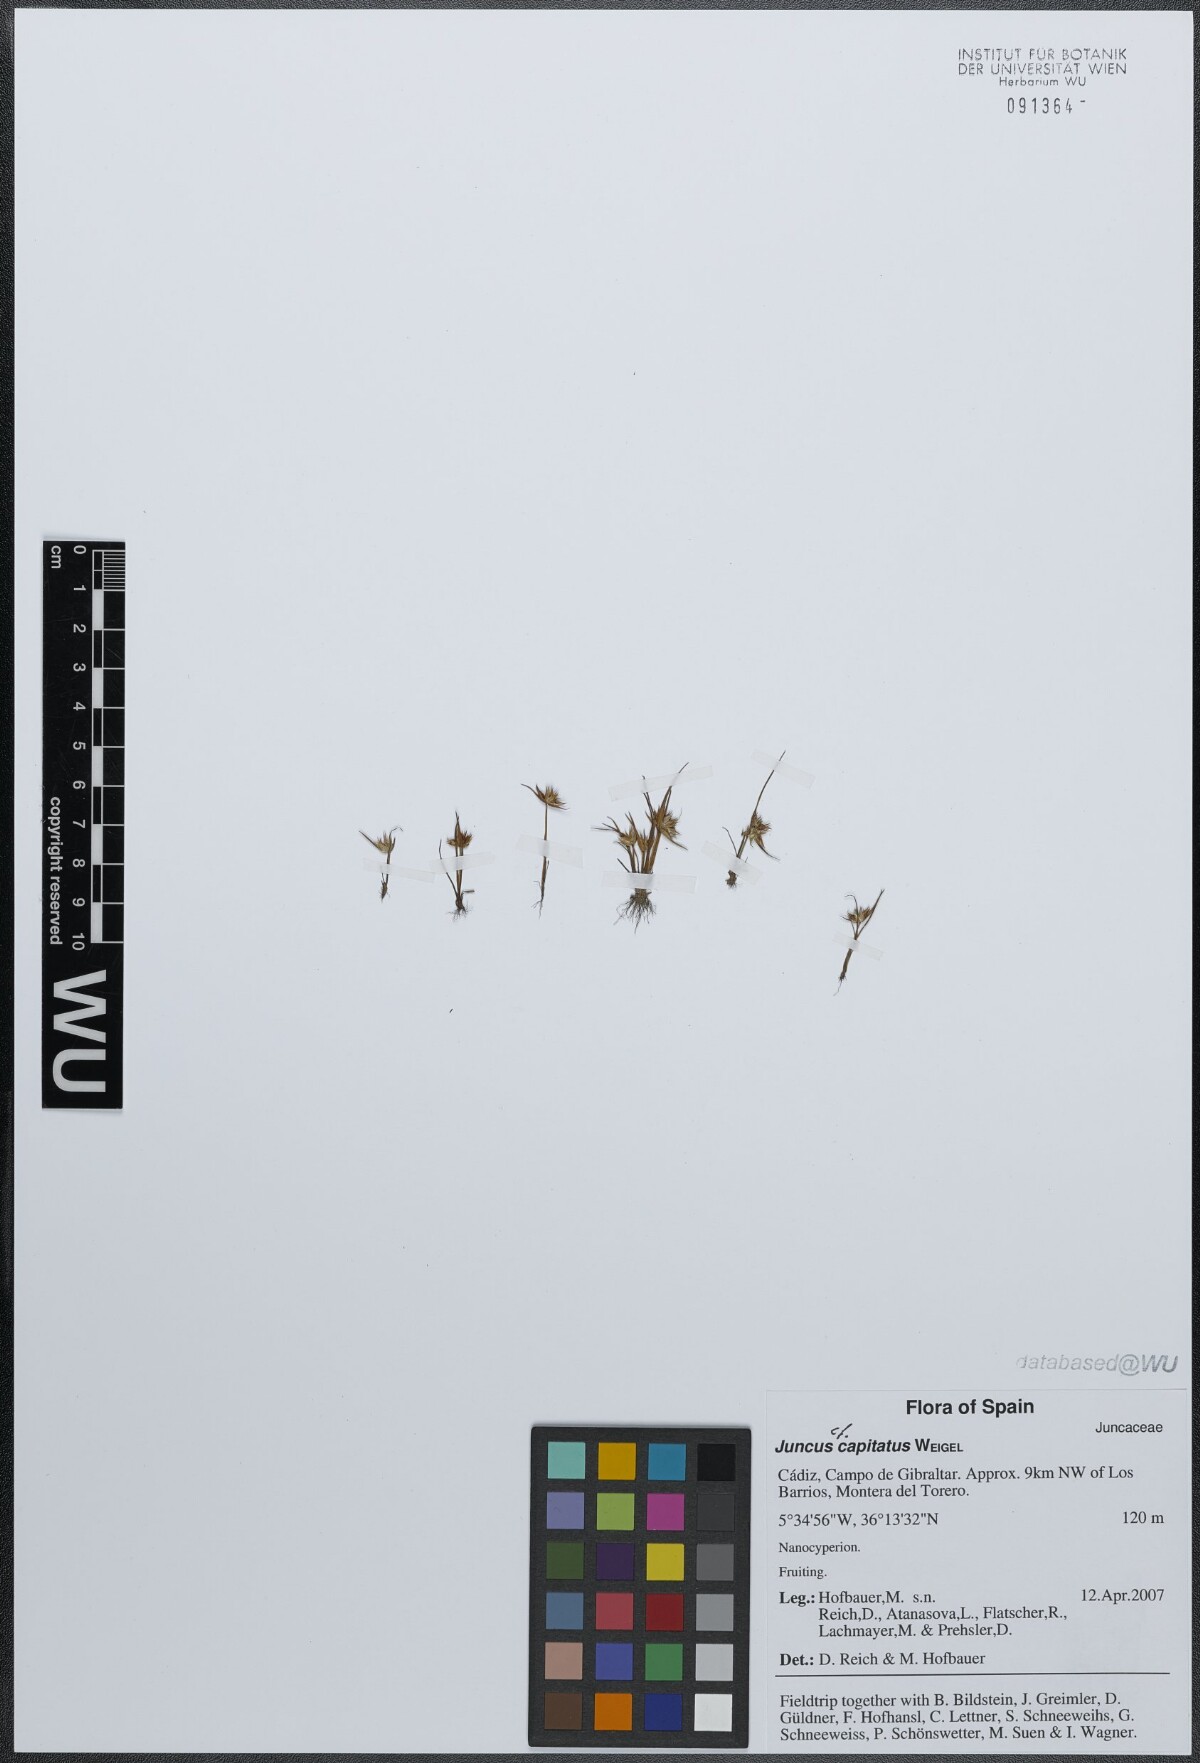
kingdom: Plantae
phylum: Tracheophyta
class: Liliopsida
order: Poales
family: Juncaceae
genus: Juncus
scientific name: Juncus capitatus
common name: Dwarf rush
